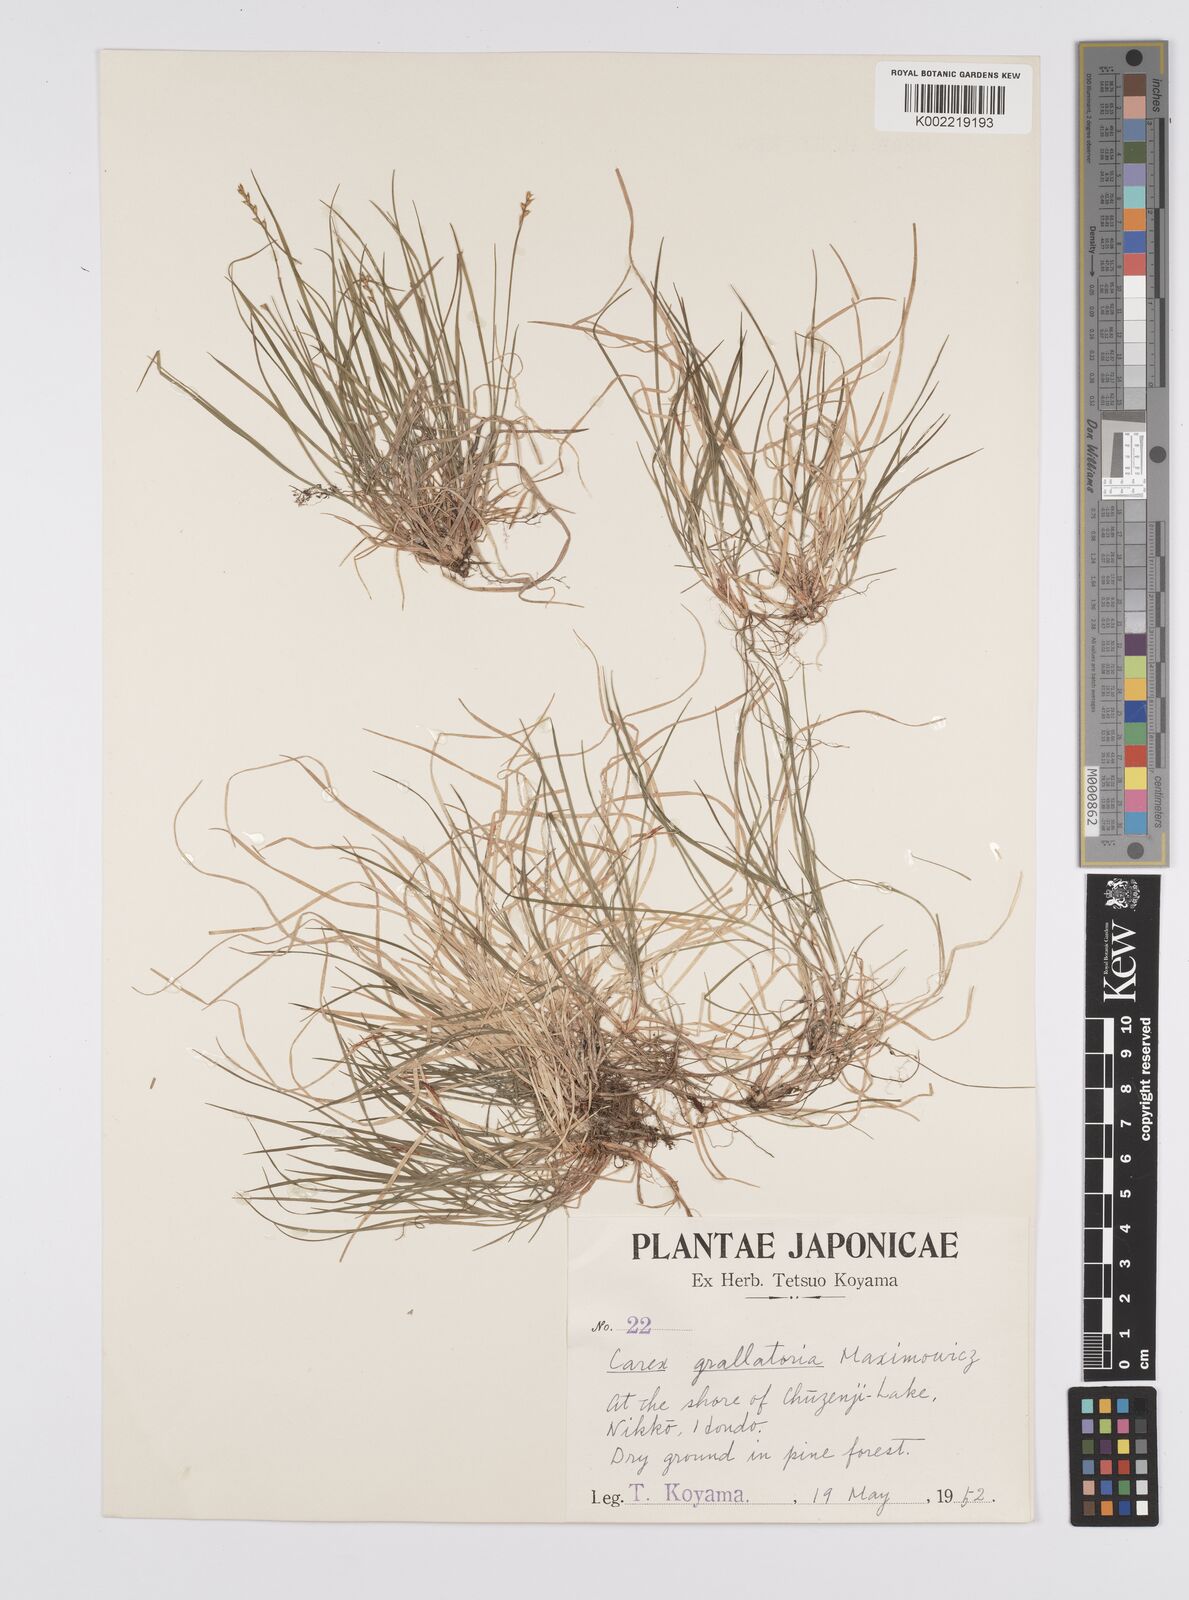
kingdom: Plantae
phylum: Tracheophyta
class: Liliopsida
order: Poales
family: Cyperaceae
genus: Carex
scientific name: Carex grallatoria
